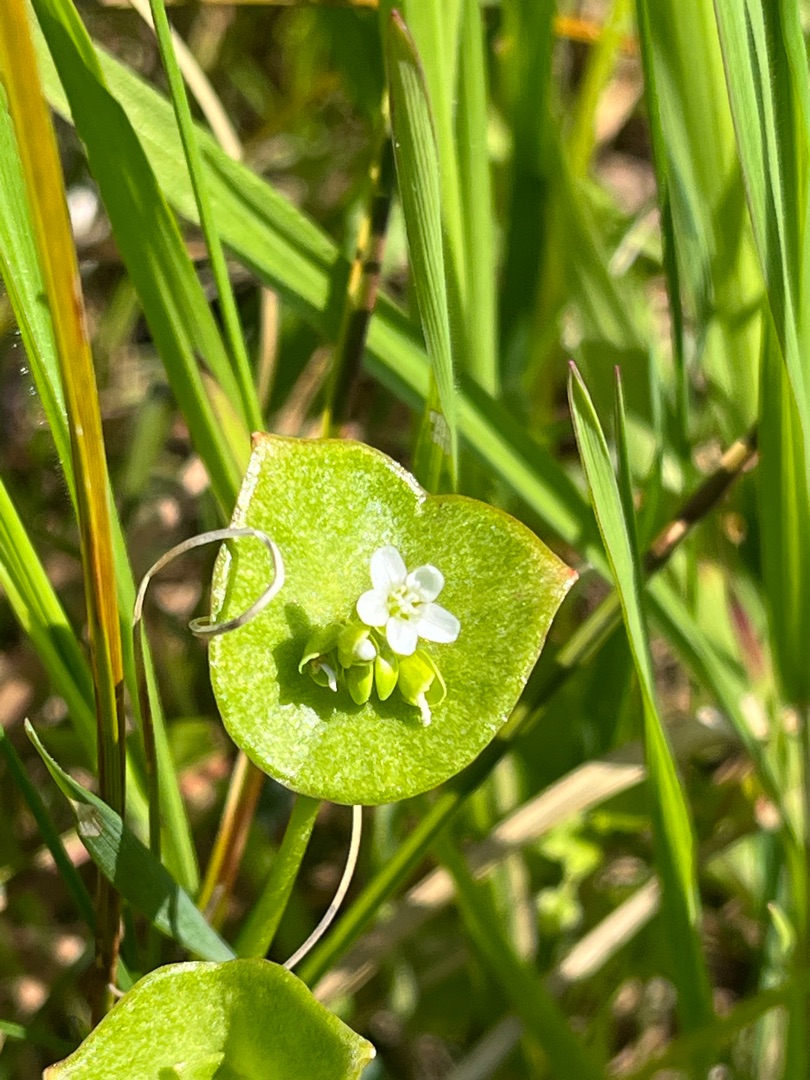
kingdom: Plantae
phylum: Tracheophyta
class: Magnoliopsida
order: Caryophyllales
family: Montiaceae
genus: Claytonia
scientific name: Claytonia perfoliata
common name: Spiselig vinterportulak
